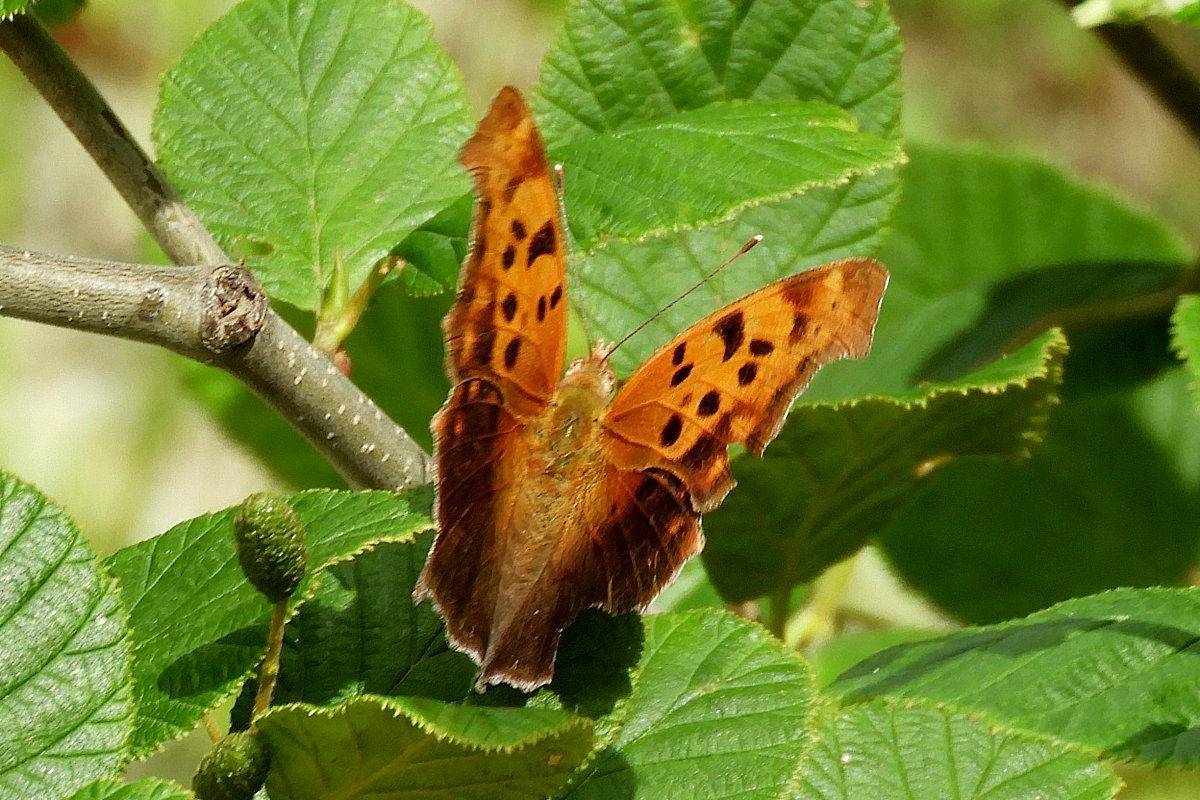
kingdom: Animalia
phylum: Arthropoda
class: Insecta
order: Lepidoptera
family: Nymphalidae
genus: Polygonia
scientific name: Polygonia interrogationis
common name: Question Mark
